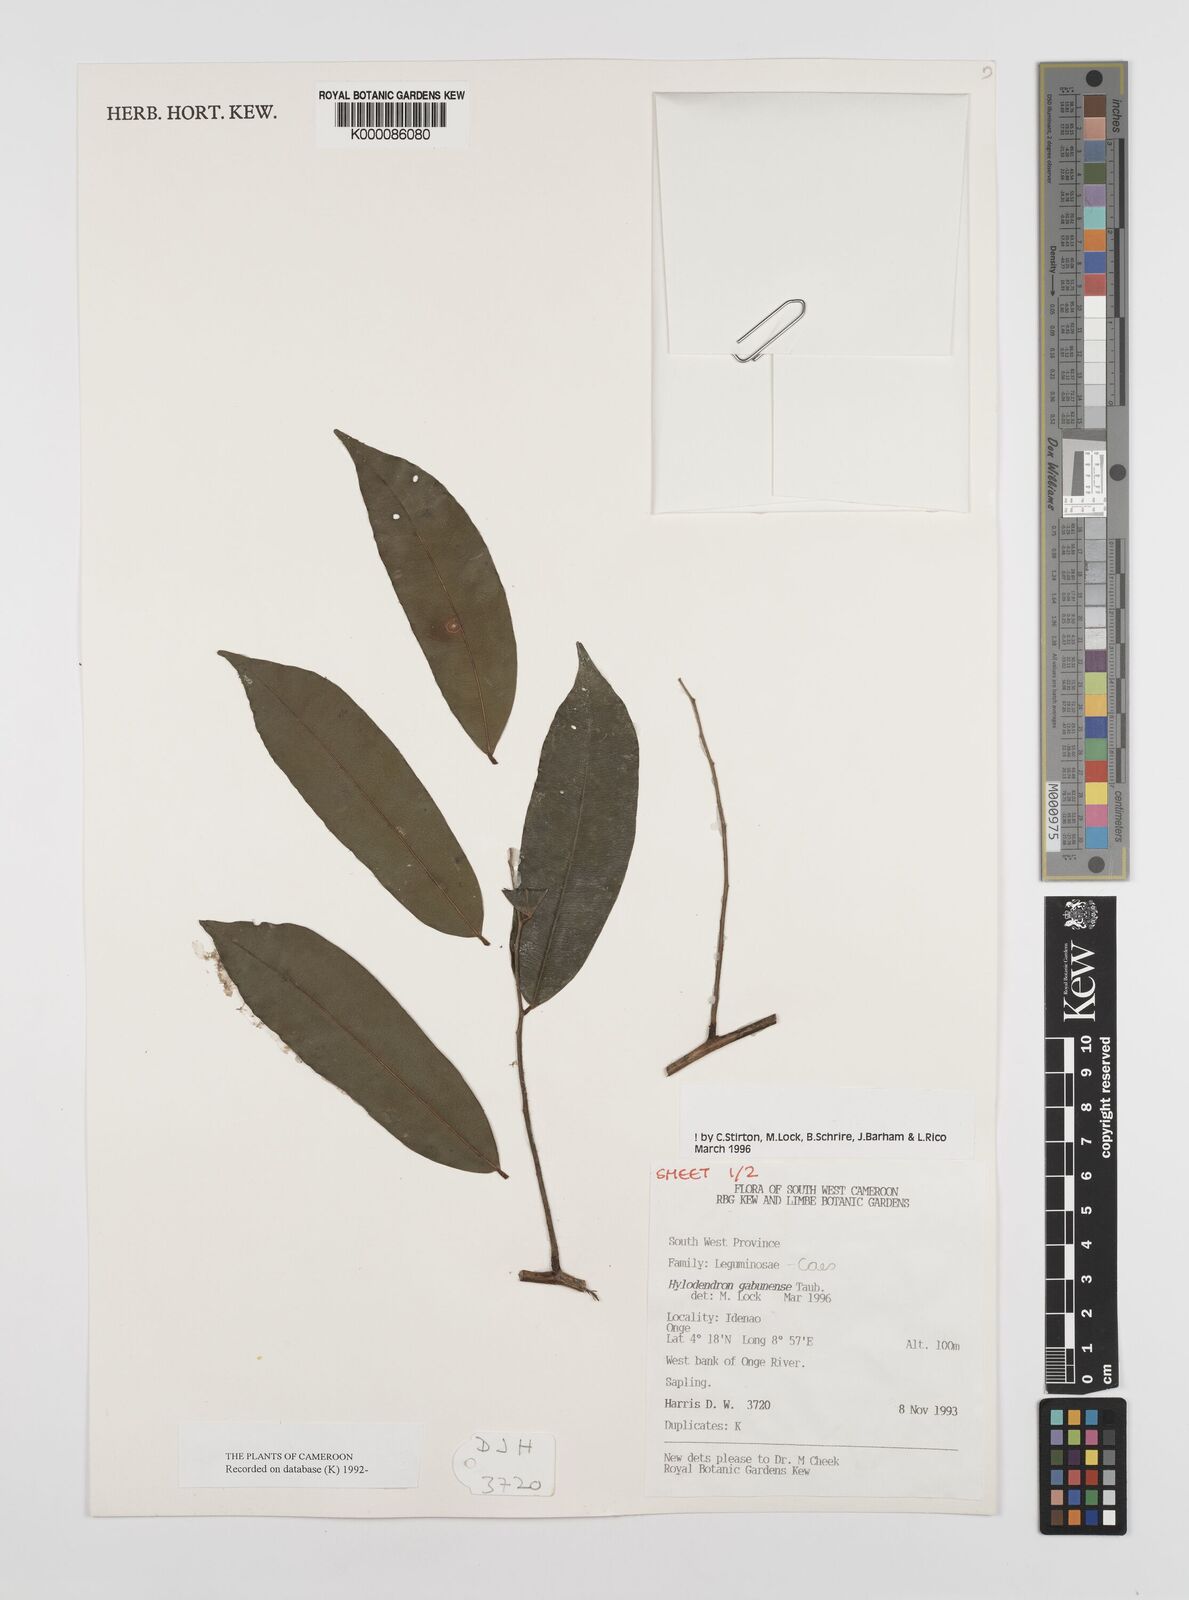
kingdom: Plantae
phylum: Tracheophyta
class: Magnoliopsida
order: Fabales
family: Fabaceae
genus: Hylodendron
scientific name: Hylodendron gabunense
